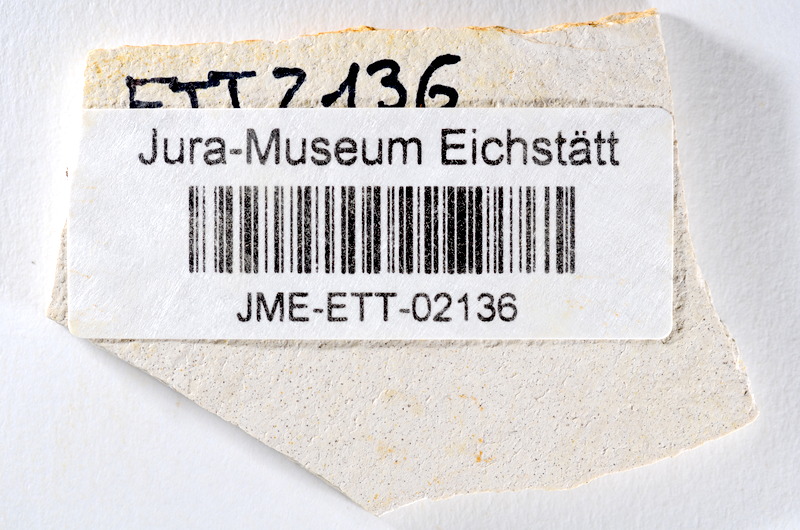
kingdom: Animalia
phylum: Chordata
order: Salmoniformes
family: Orthogonikleithridae
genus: Orthogonikleithrus
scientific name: Orthogonikleithrus hoelli
